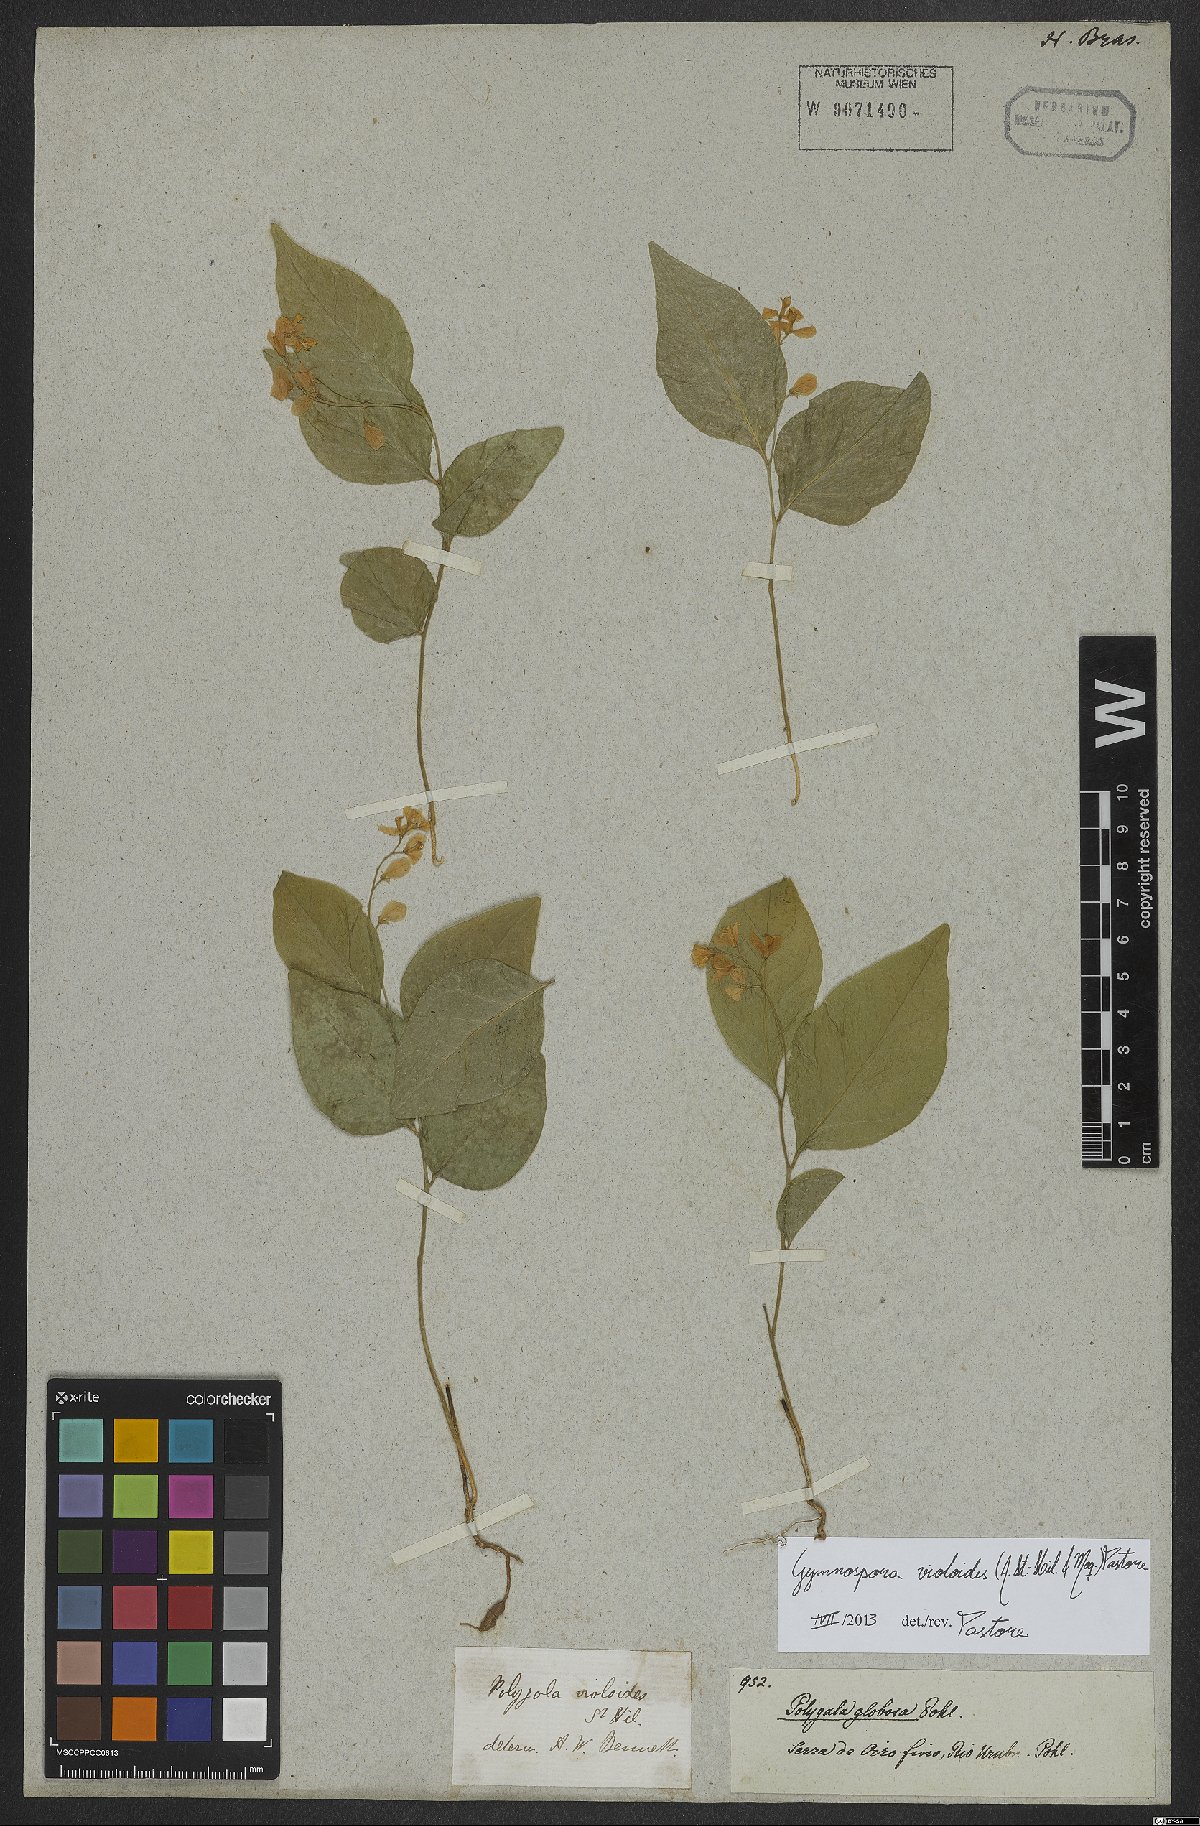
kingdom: Plantae
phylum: Tracheophyta
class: Magnoliopsida
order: Fabales
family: Polygalaceae
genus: Gymnospora
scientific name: Gymnospora violoides
